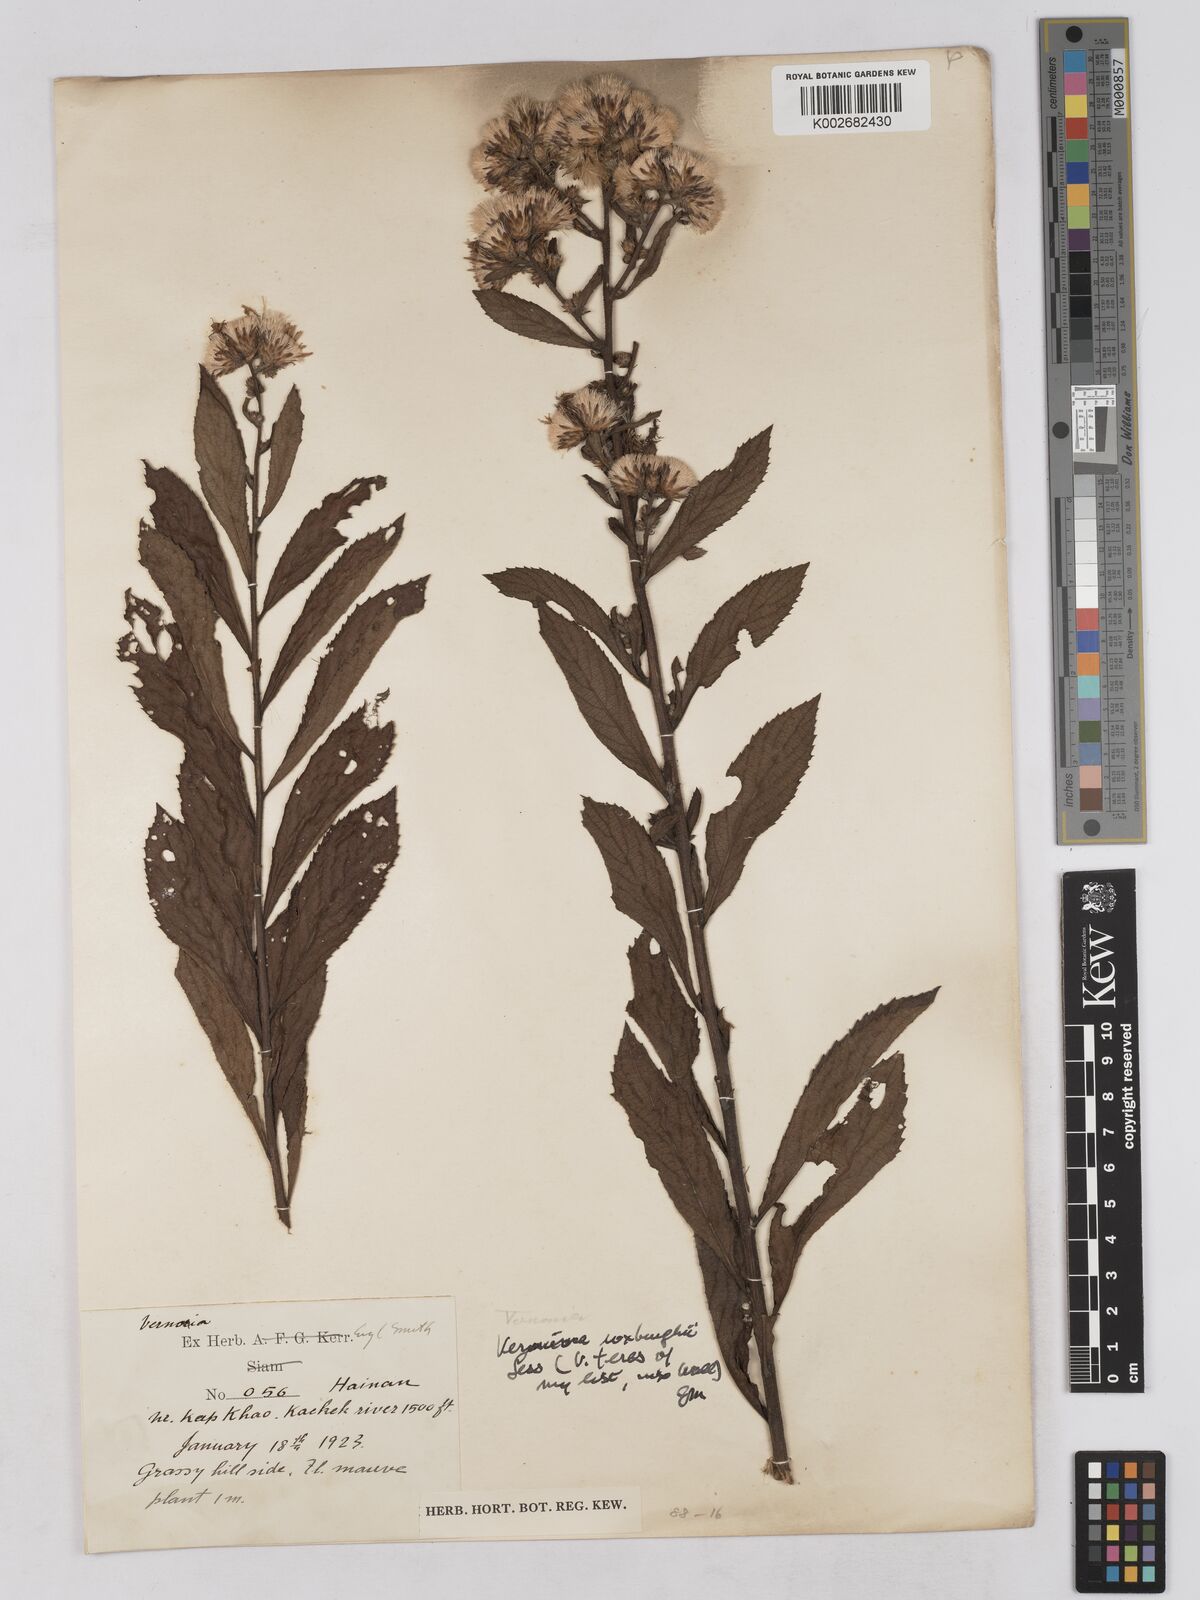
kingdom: Plantae
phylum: Tracheophyta
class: Magnoliopsida
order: Asterales
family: Asteraceae
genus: Acilepis
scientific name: Acilepis aspera
